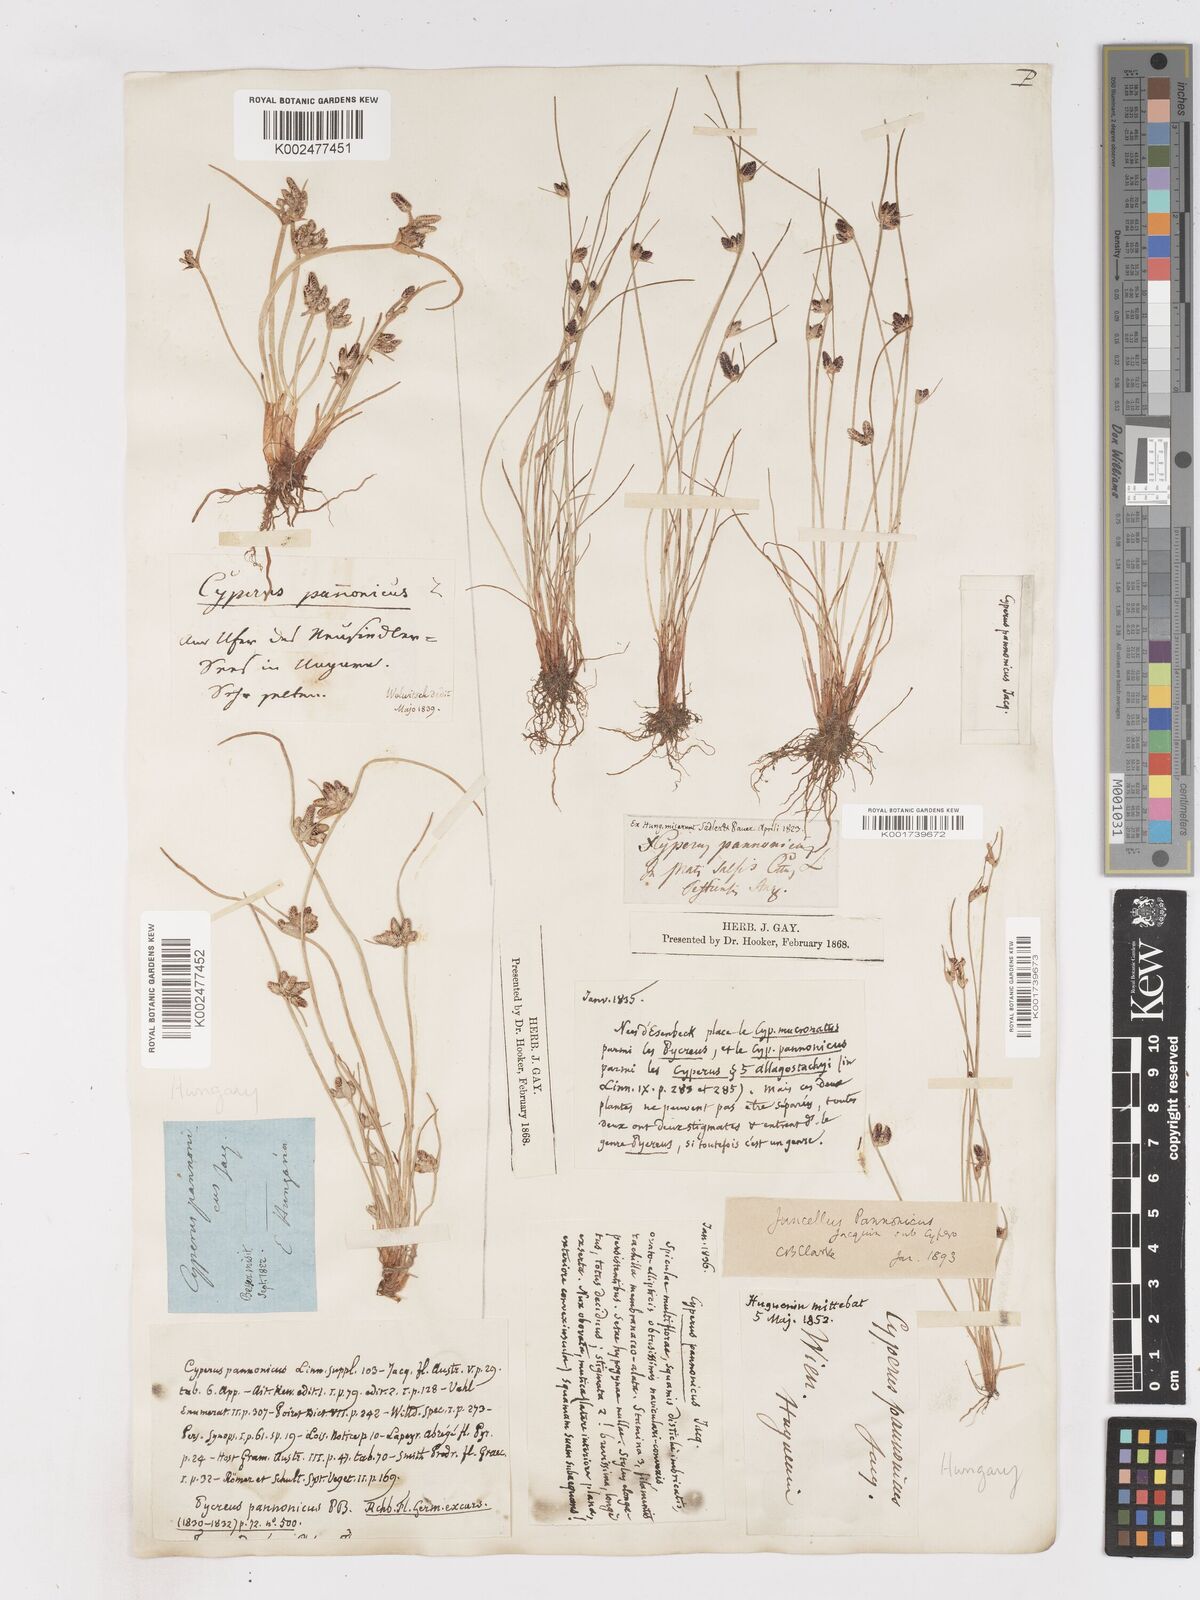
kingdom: Plantae
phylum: Tracheophyta
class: Liliopsida
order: Poales
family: Cyperaceae
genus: Cyperus
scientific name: Cyperus pannonicus
